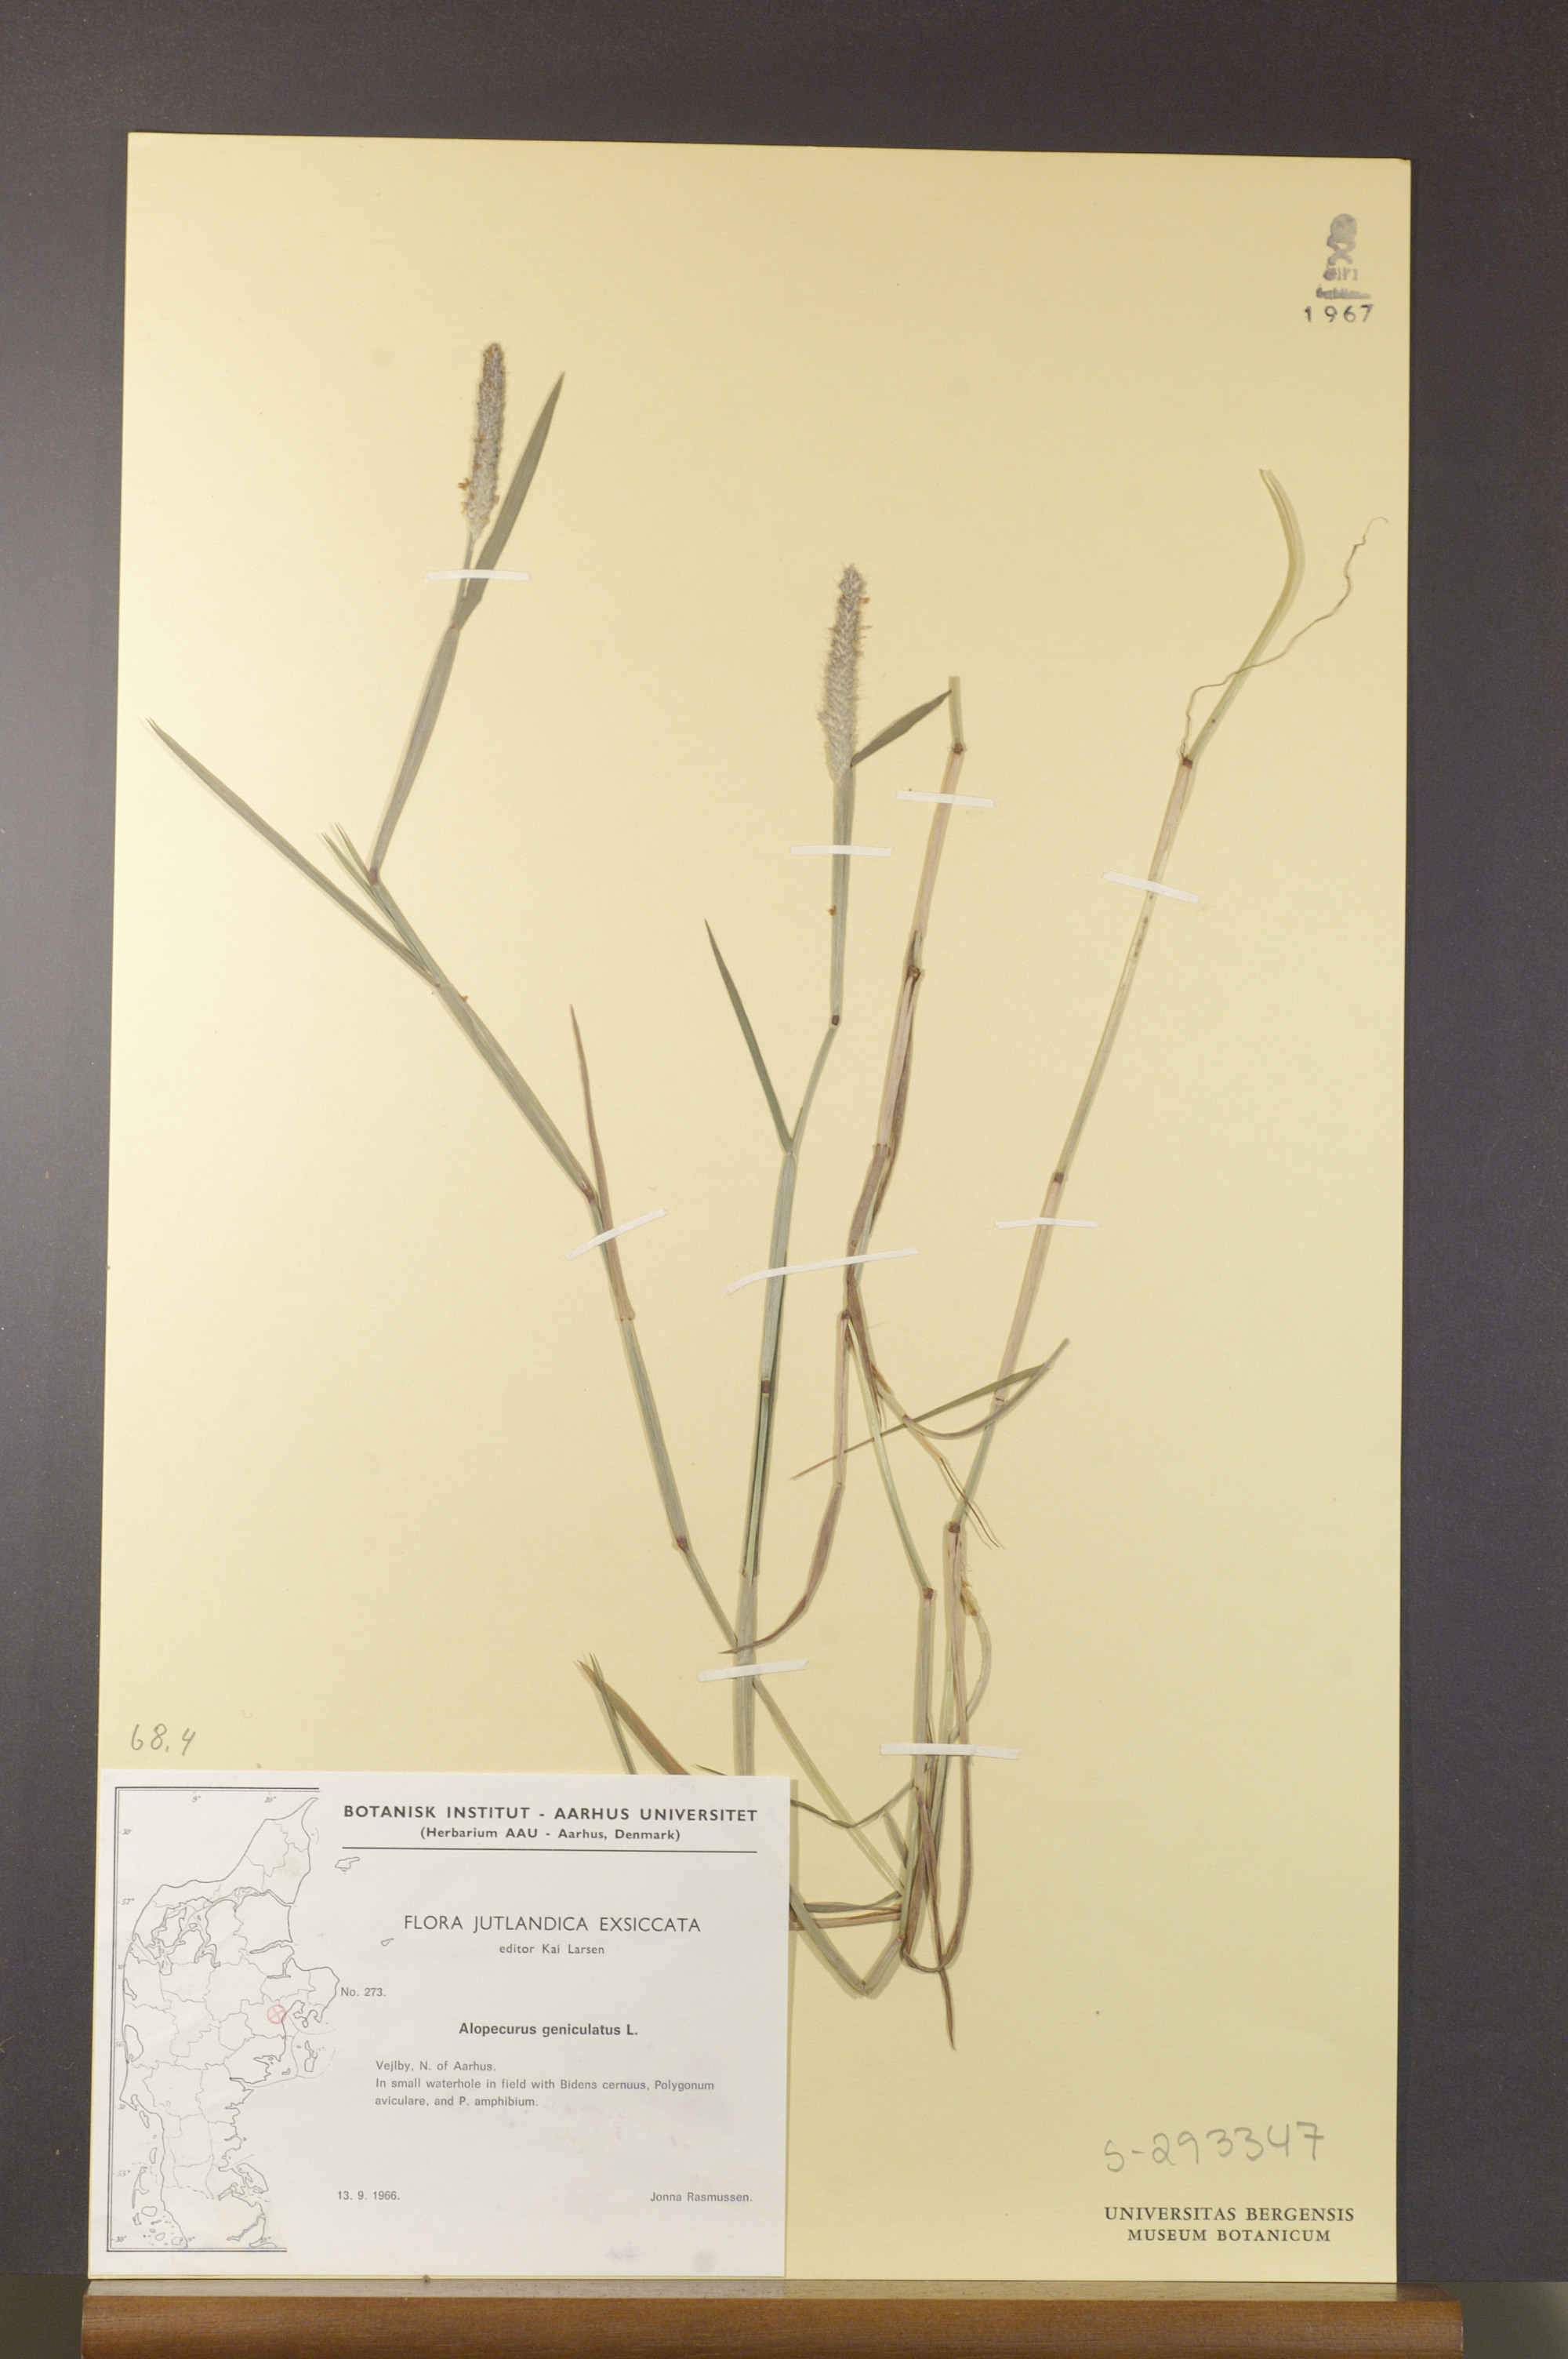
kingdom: Plantae
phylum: Tracheophyta
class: Liliopsida
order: Poales
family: Poaceae
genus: Alopecurus
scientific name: Alopecurus geniculatus
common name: Water foxtail
